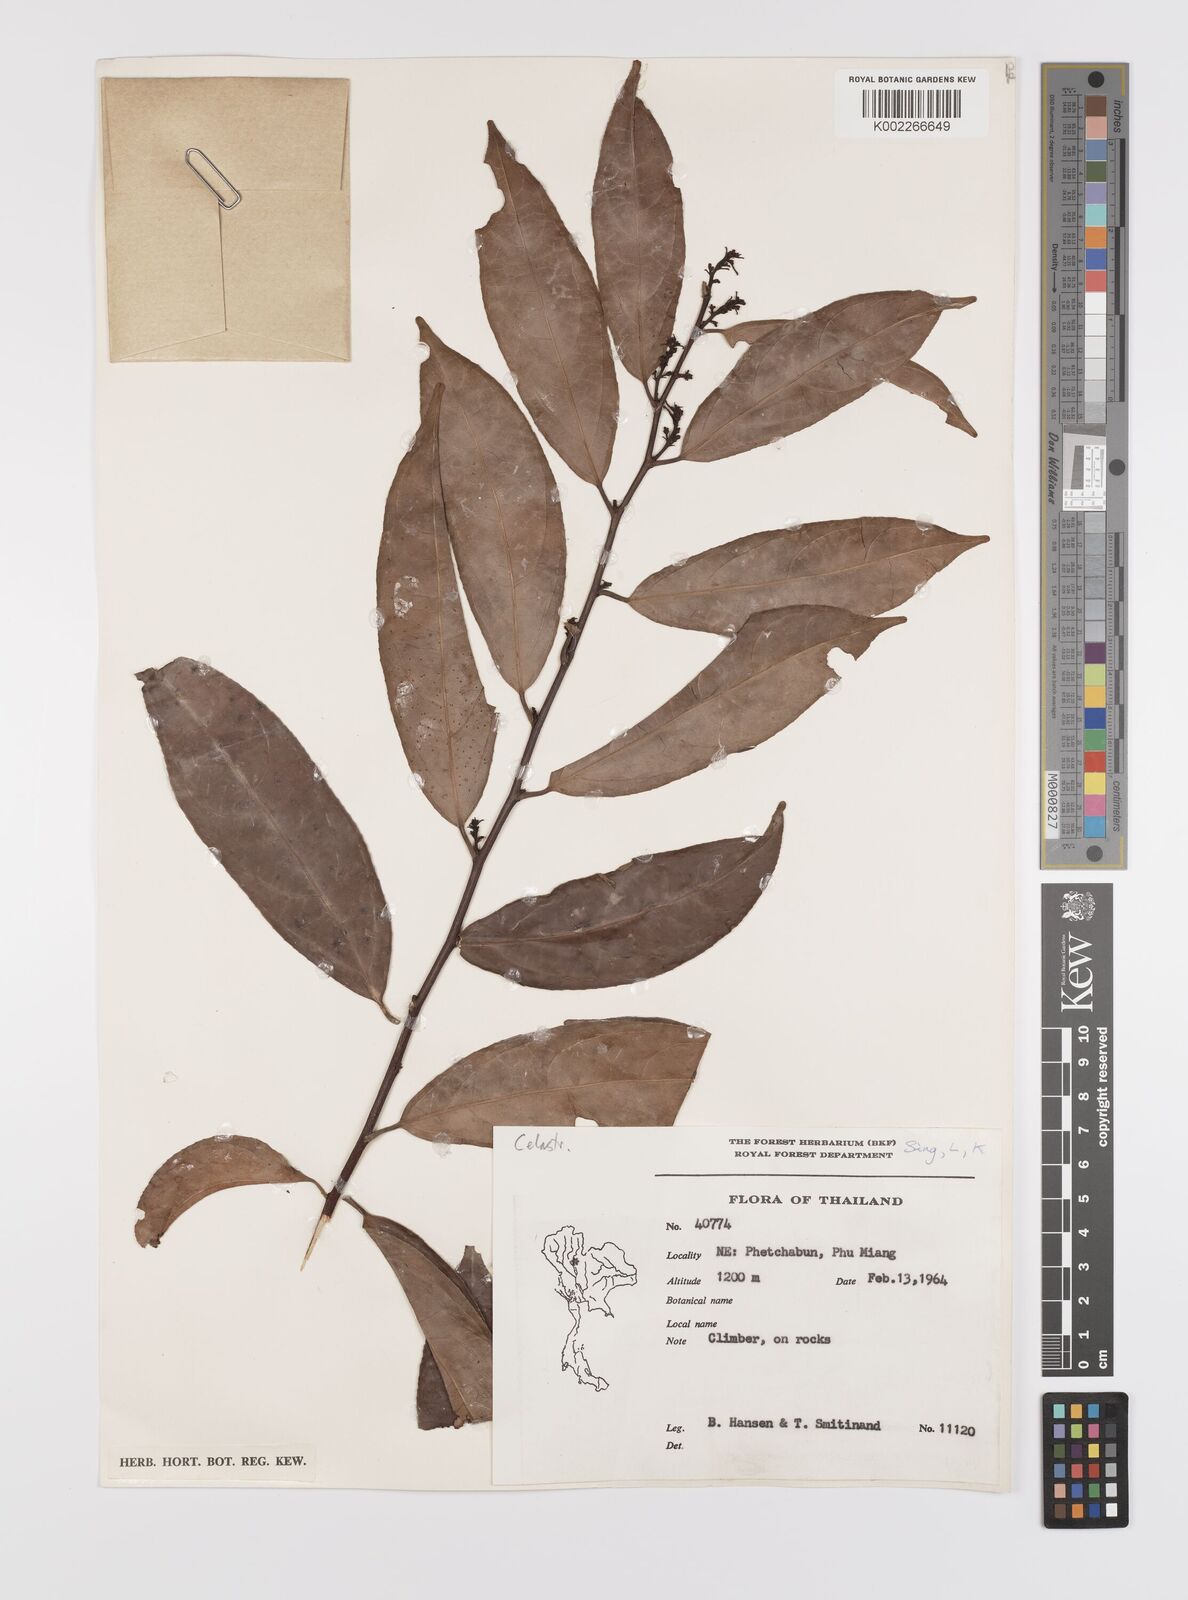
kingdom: Plantae
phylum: Tracheophyta
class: Magnoliopsida
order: Celastrales
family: Celastraceae
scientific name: Celastraceae
